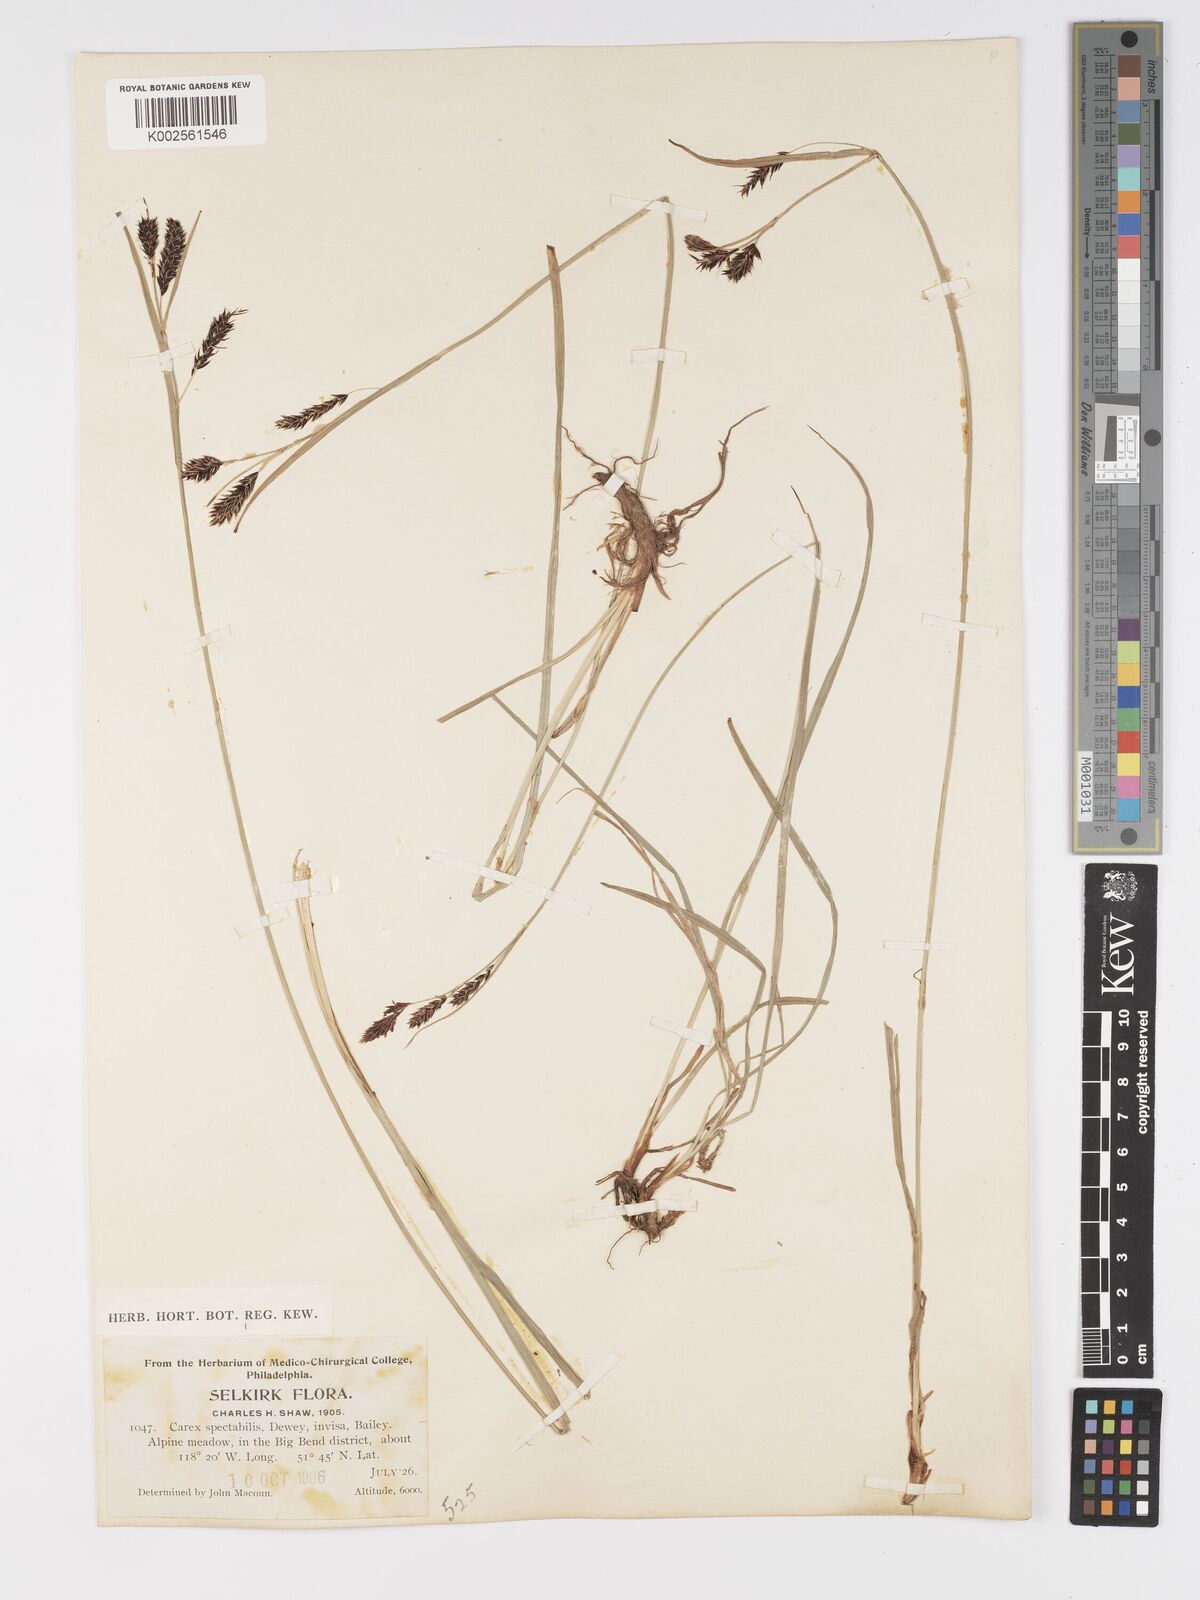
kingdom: Plantae
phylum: Tracheophyta
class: Liliopsida
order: Poales
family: Cyperaceae
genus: Carex
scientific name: Carex spectabilis
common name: Northwestern showy sedge
